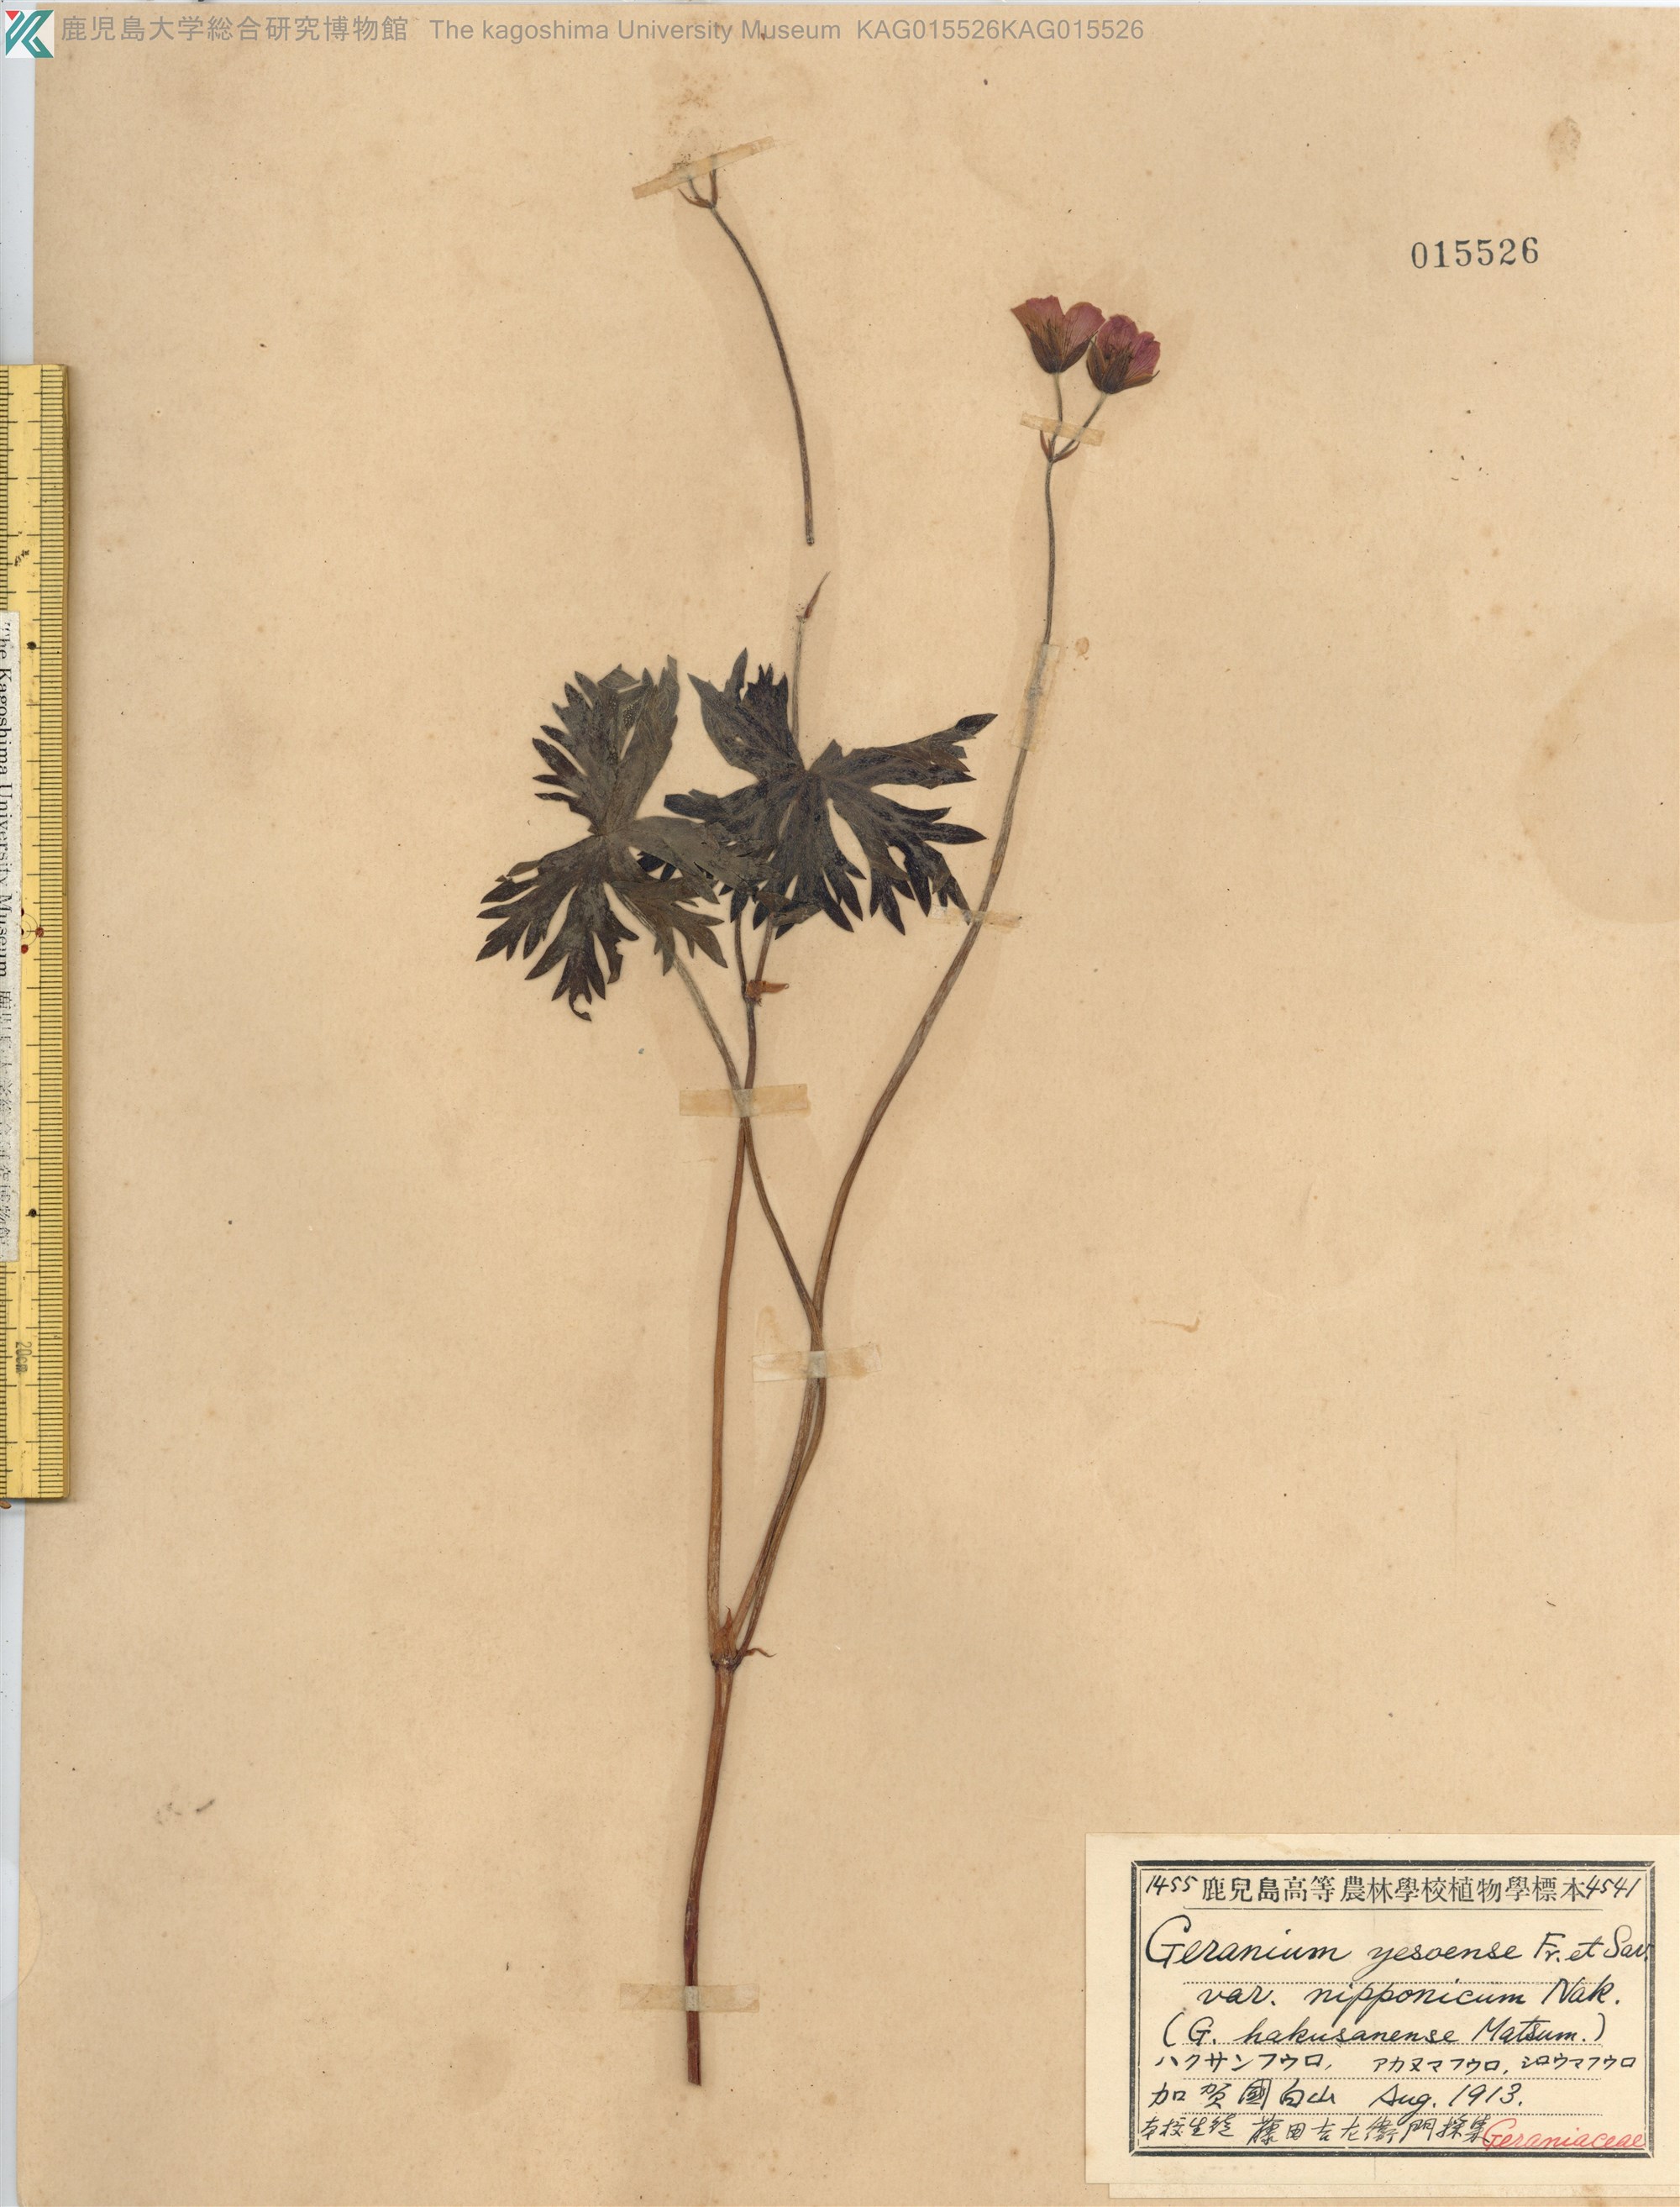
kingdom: Plantae
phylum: Tracheophyta
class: Magnoliopsida
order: Geraniales
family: Geraniaceae
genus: Geranium
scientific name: Geranium yesoense
